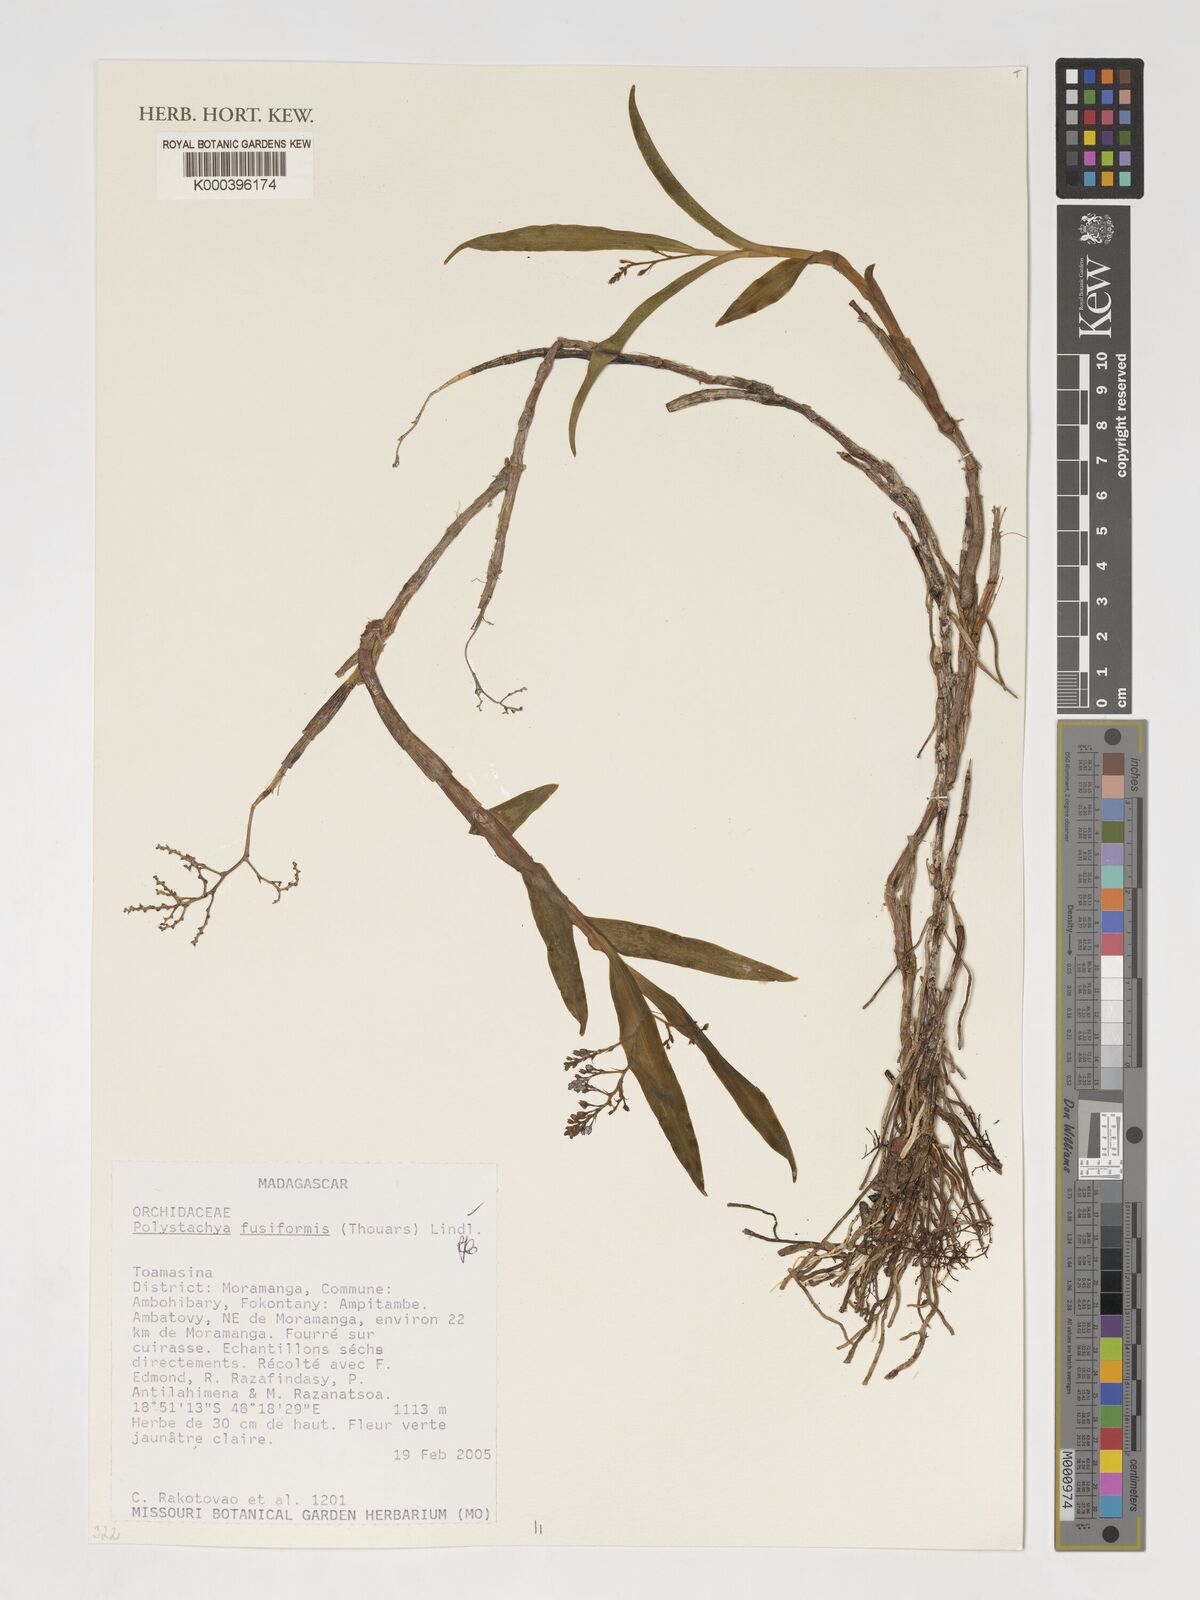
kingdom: Plantae
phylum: Tracheophyta
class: Liliopsida
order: Asparagales
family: Orchidaceae
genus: Polystachya
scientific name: Polystachya fusiformis
